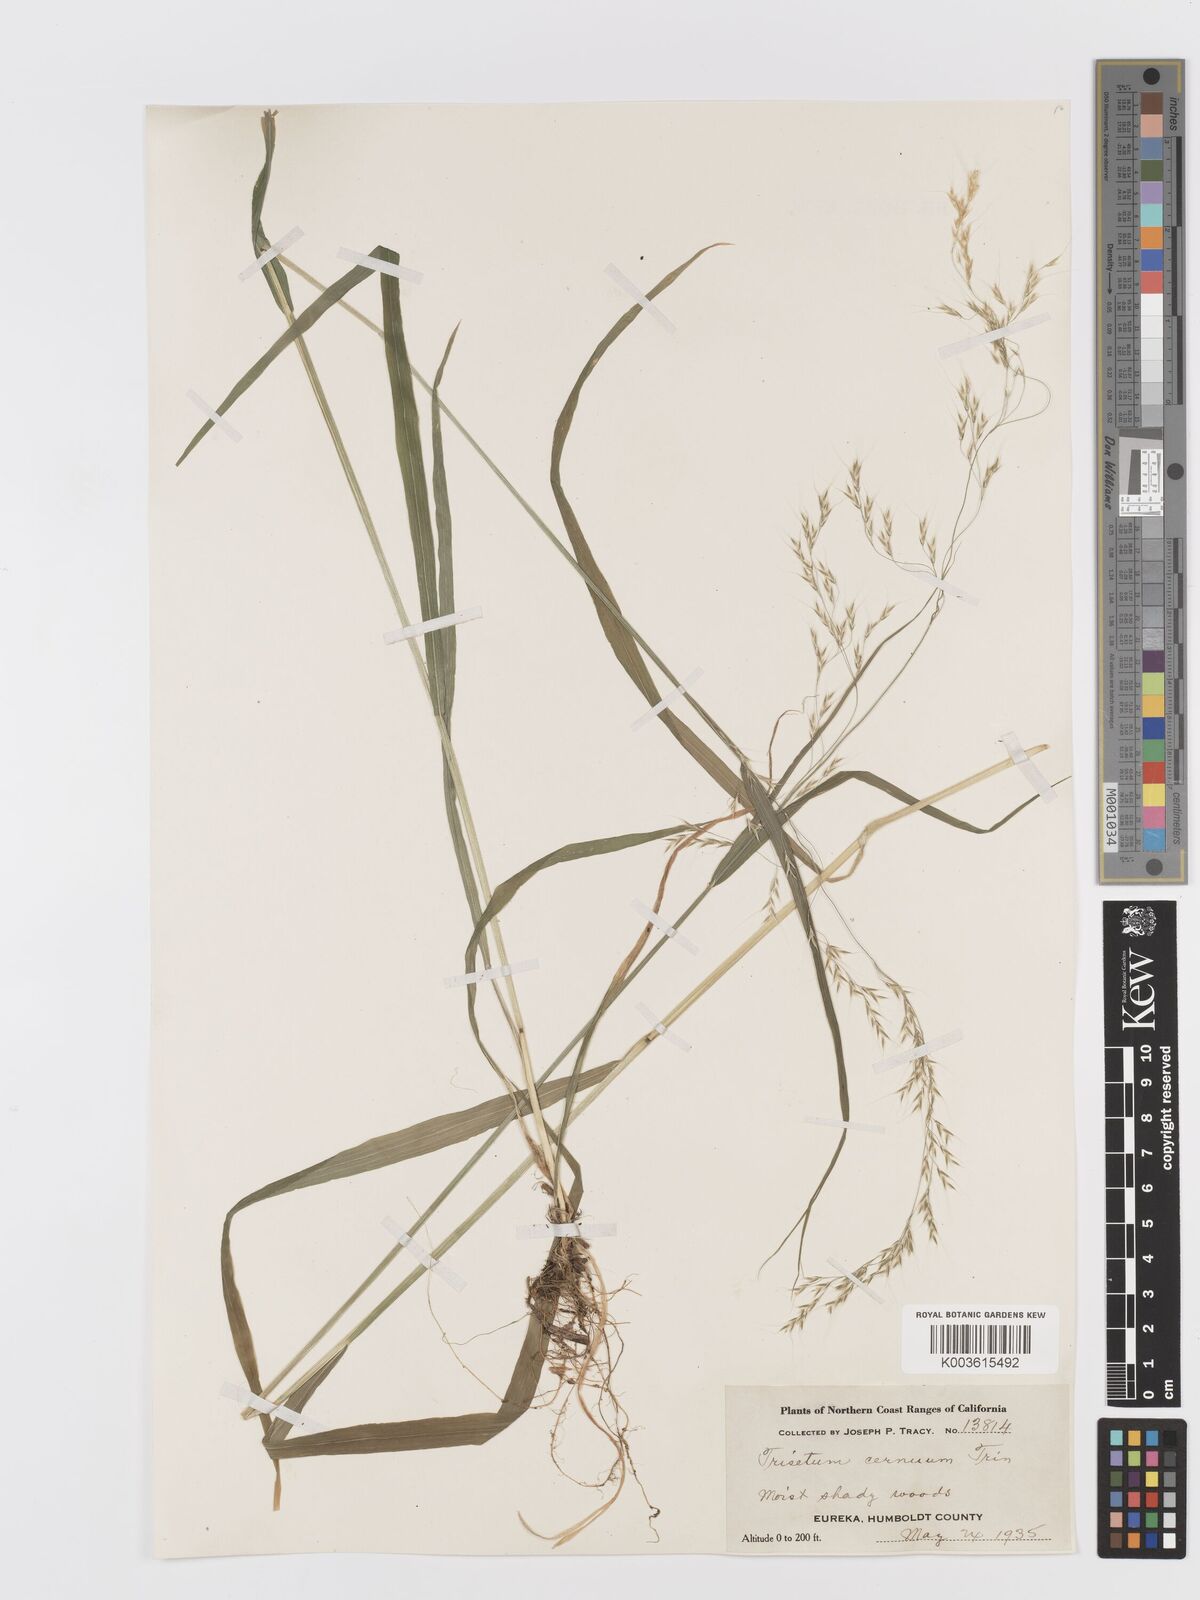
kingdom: Plantae
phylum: Tracheophyta
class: Liliopsida
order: Poales
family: Poaceae
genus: Graphephorum
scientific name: Graphephorum cernuum
